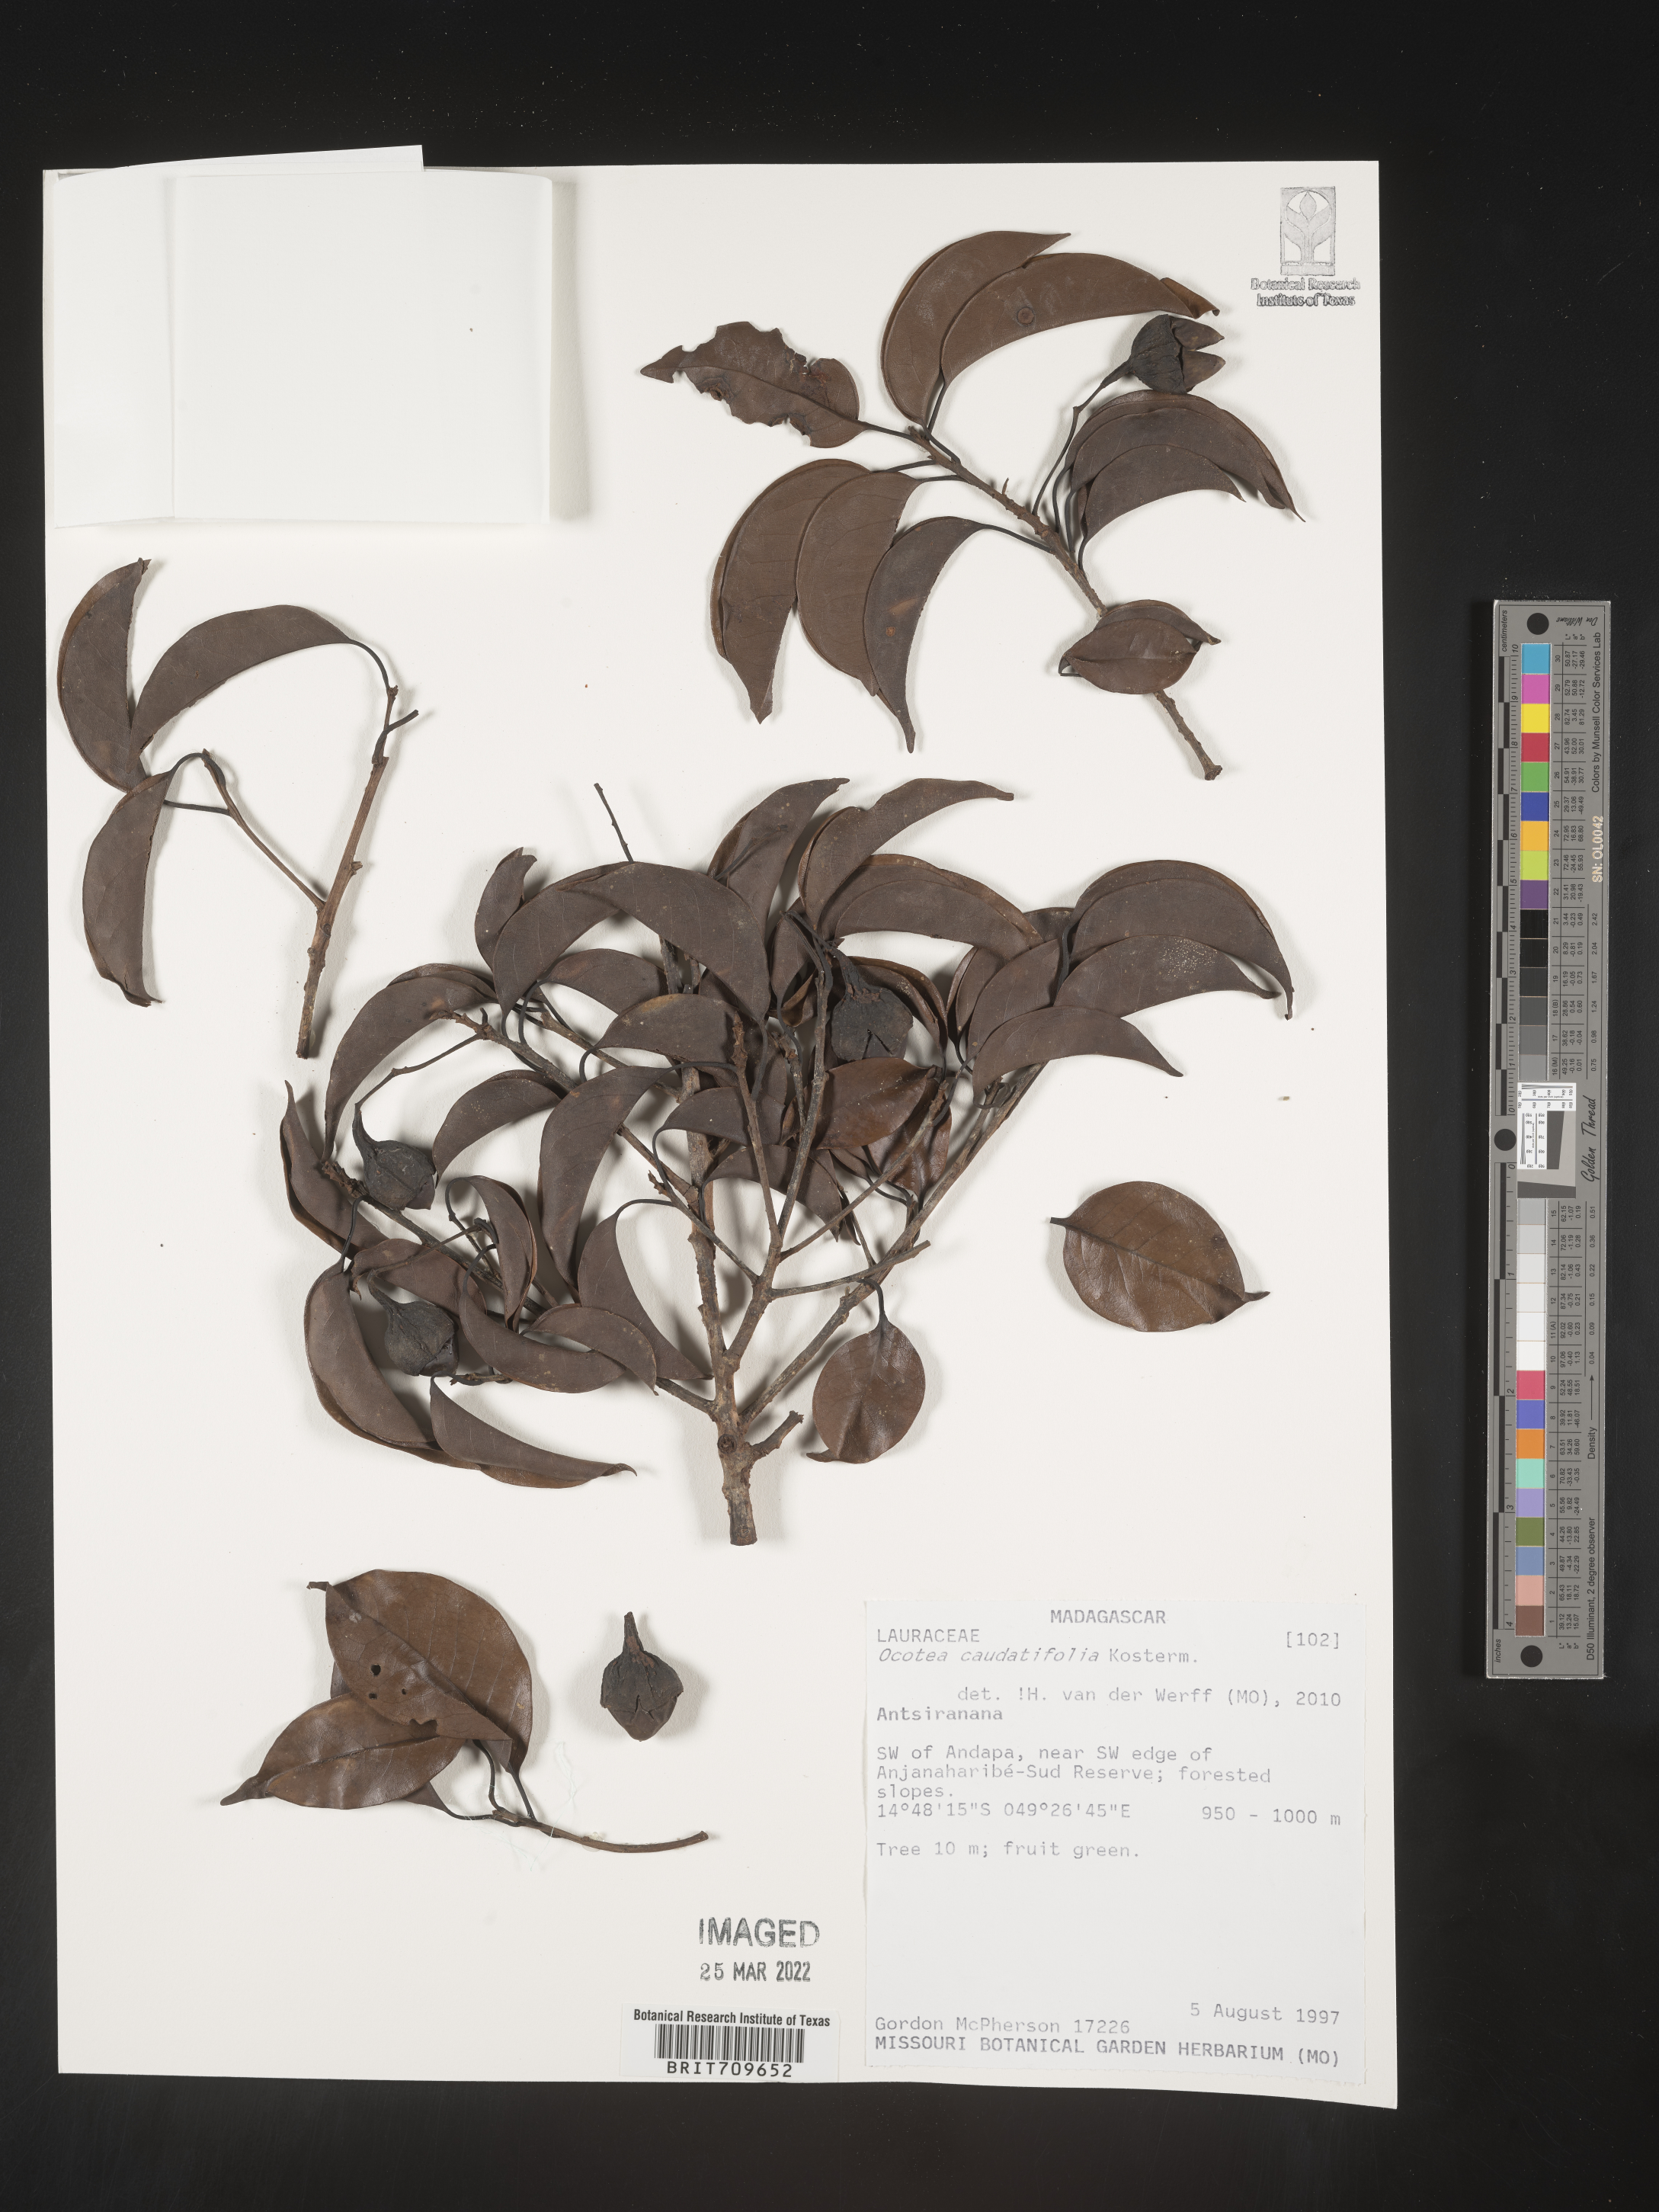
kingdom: Plantae
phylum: Tracheophyta
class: Magnoliopsida
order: Laurales
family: Lauraceae
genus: Ocotea
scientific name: Ocotea
